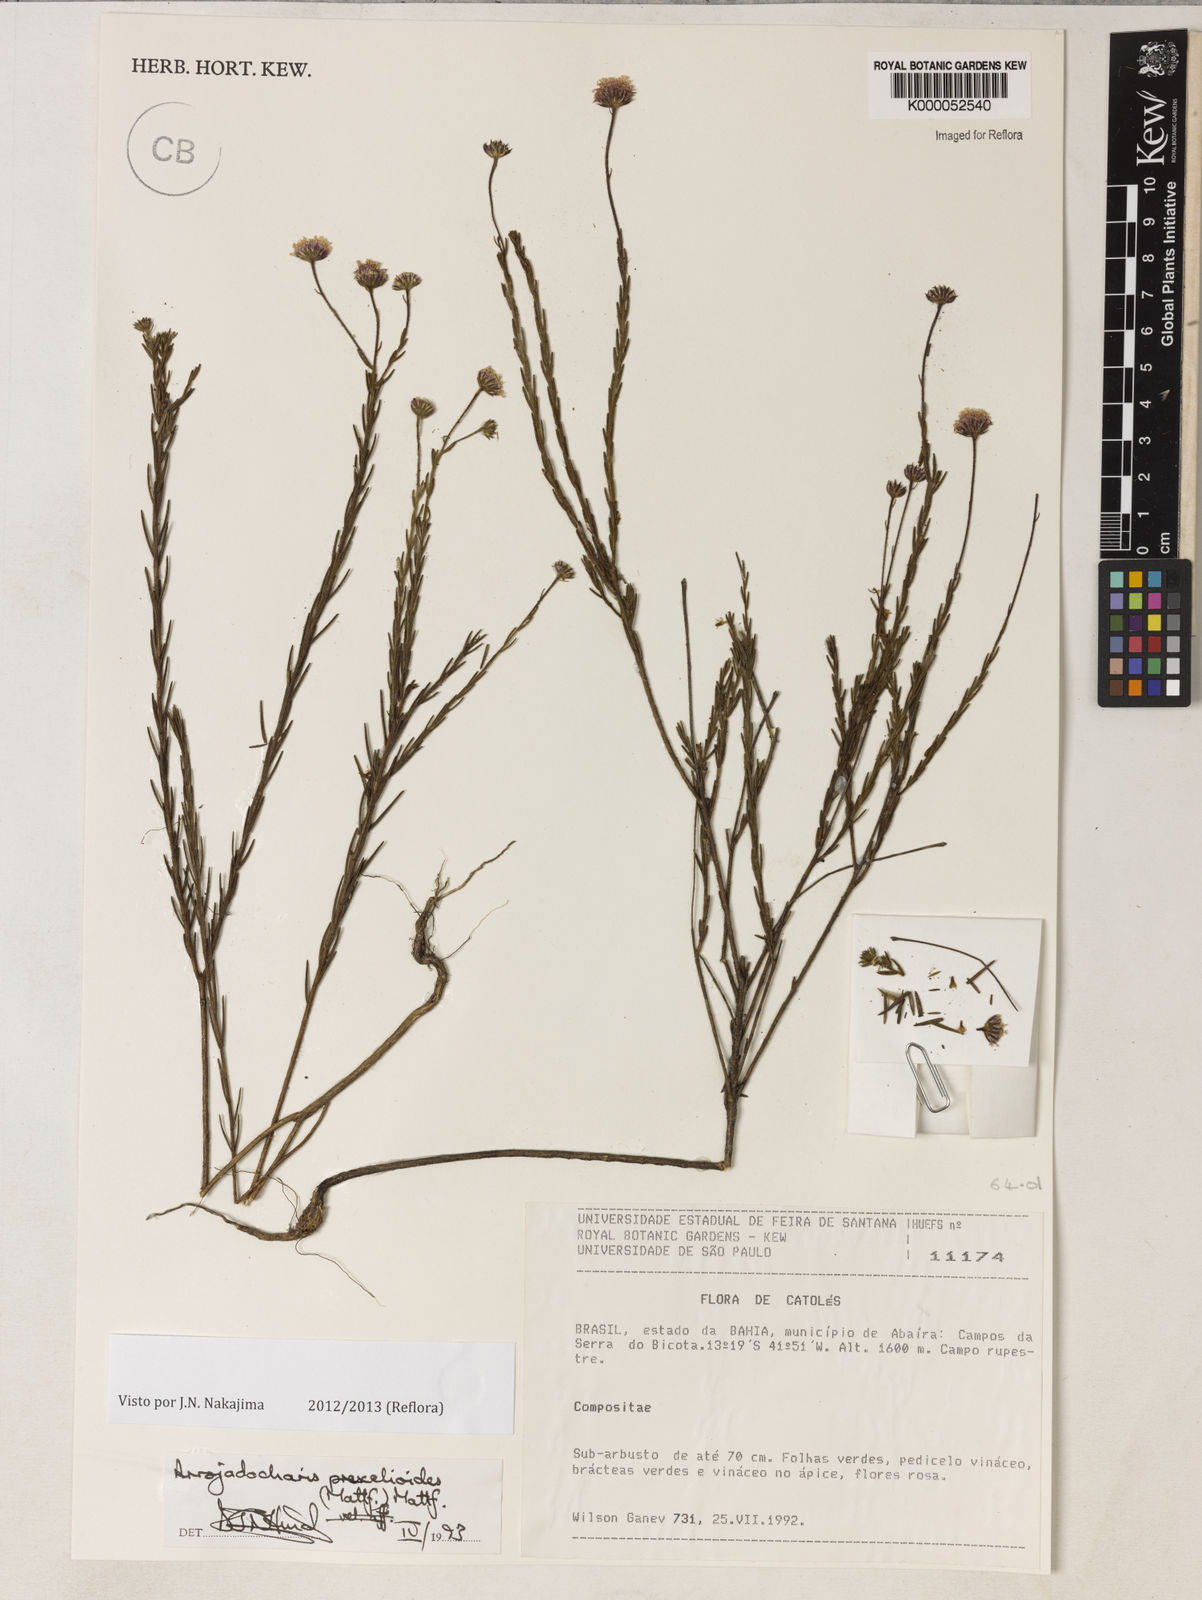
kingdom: Plantae
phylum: Tracheophyta
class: Magnoliopsida
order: Asterales
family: Asteraceae
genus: Arrojadocharis
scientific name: Arrojadocharis praxeloides
